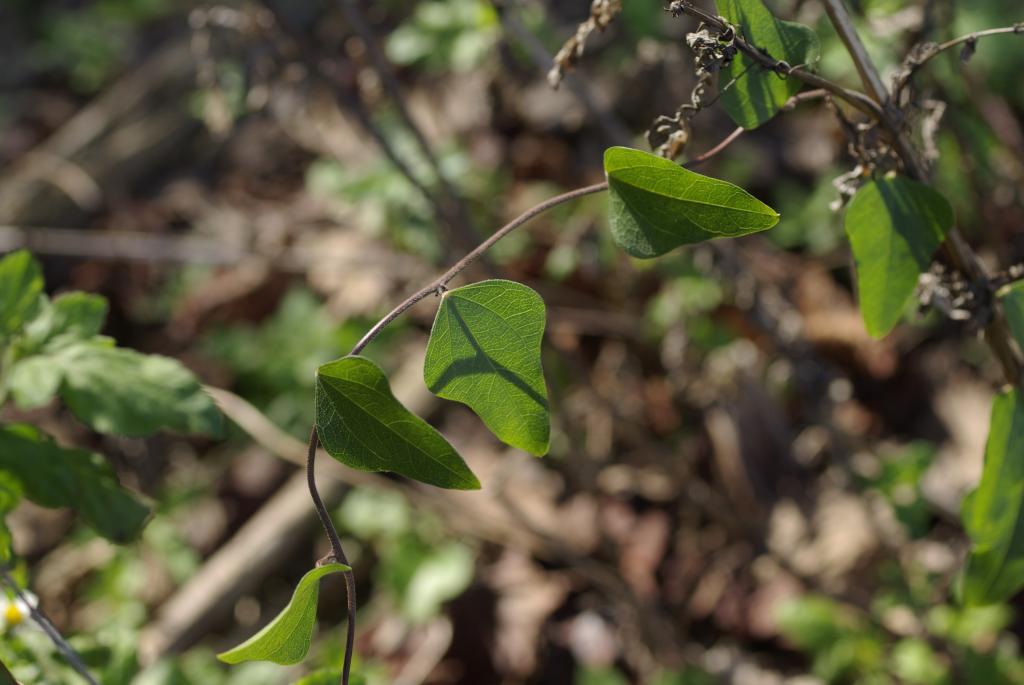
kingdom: Plantae
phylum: Tracheophyta
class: Magnoliopsida
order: Ranunculales
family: Menispermaceae
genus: Cocculus
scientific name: Cocculus orbiculatus
